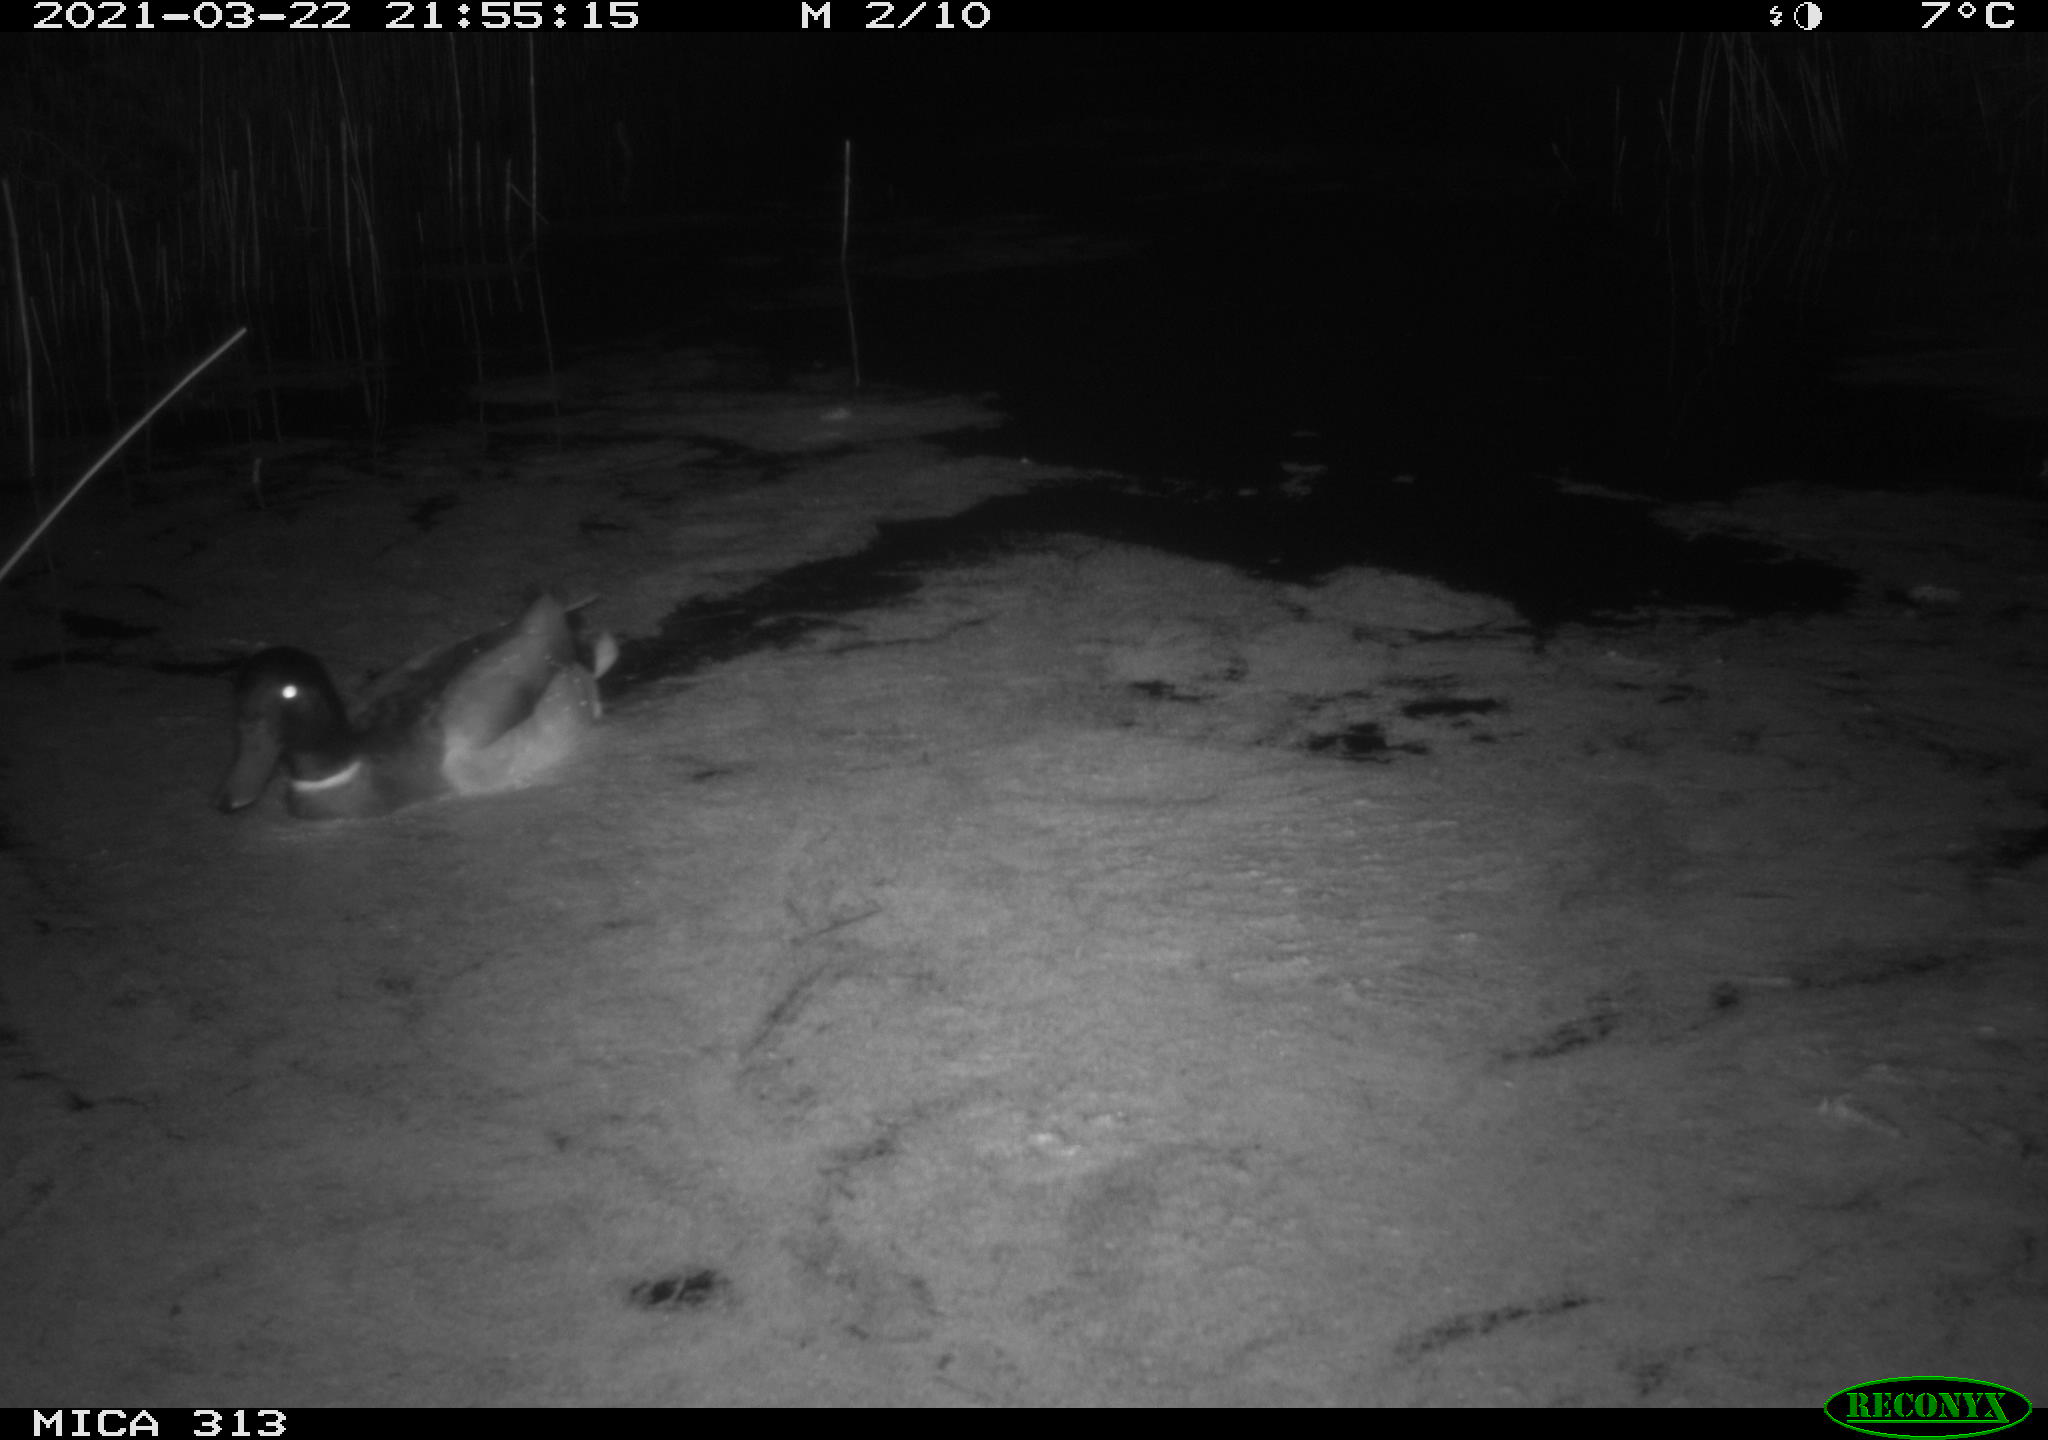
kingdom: Animalia
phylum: Chordata
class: Aves
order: Anseriformes
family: Anatidae
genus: Anas
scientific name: Anas platyrhynchos
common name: Mallard
